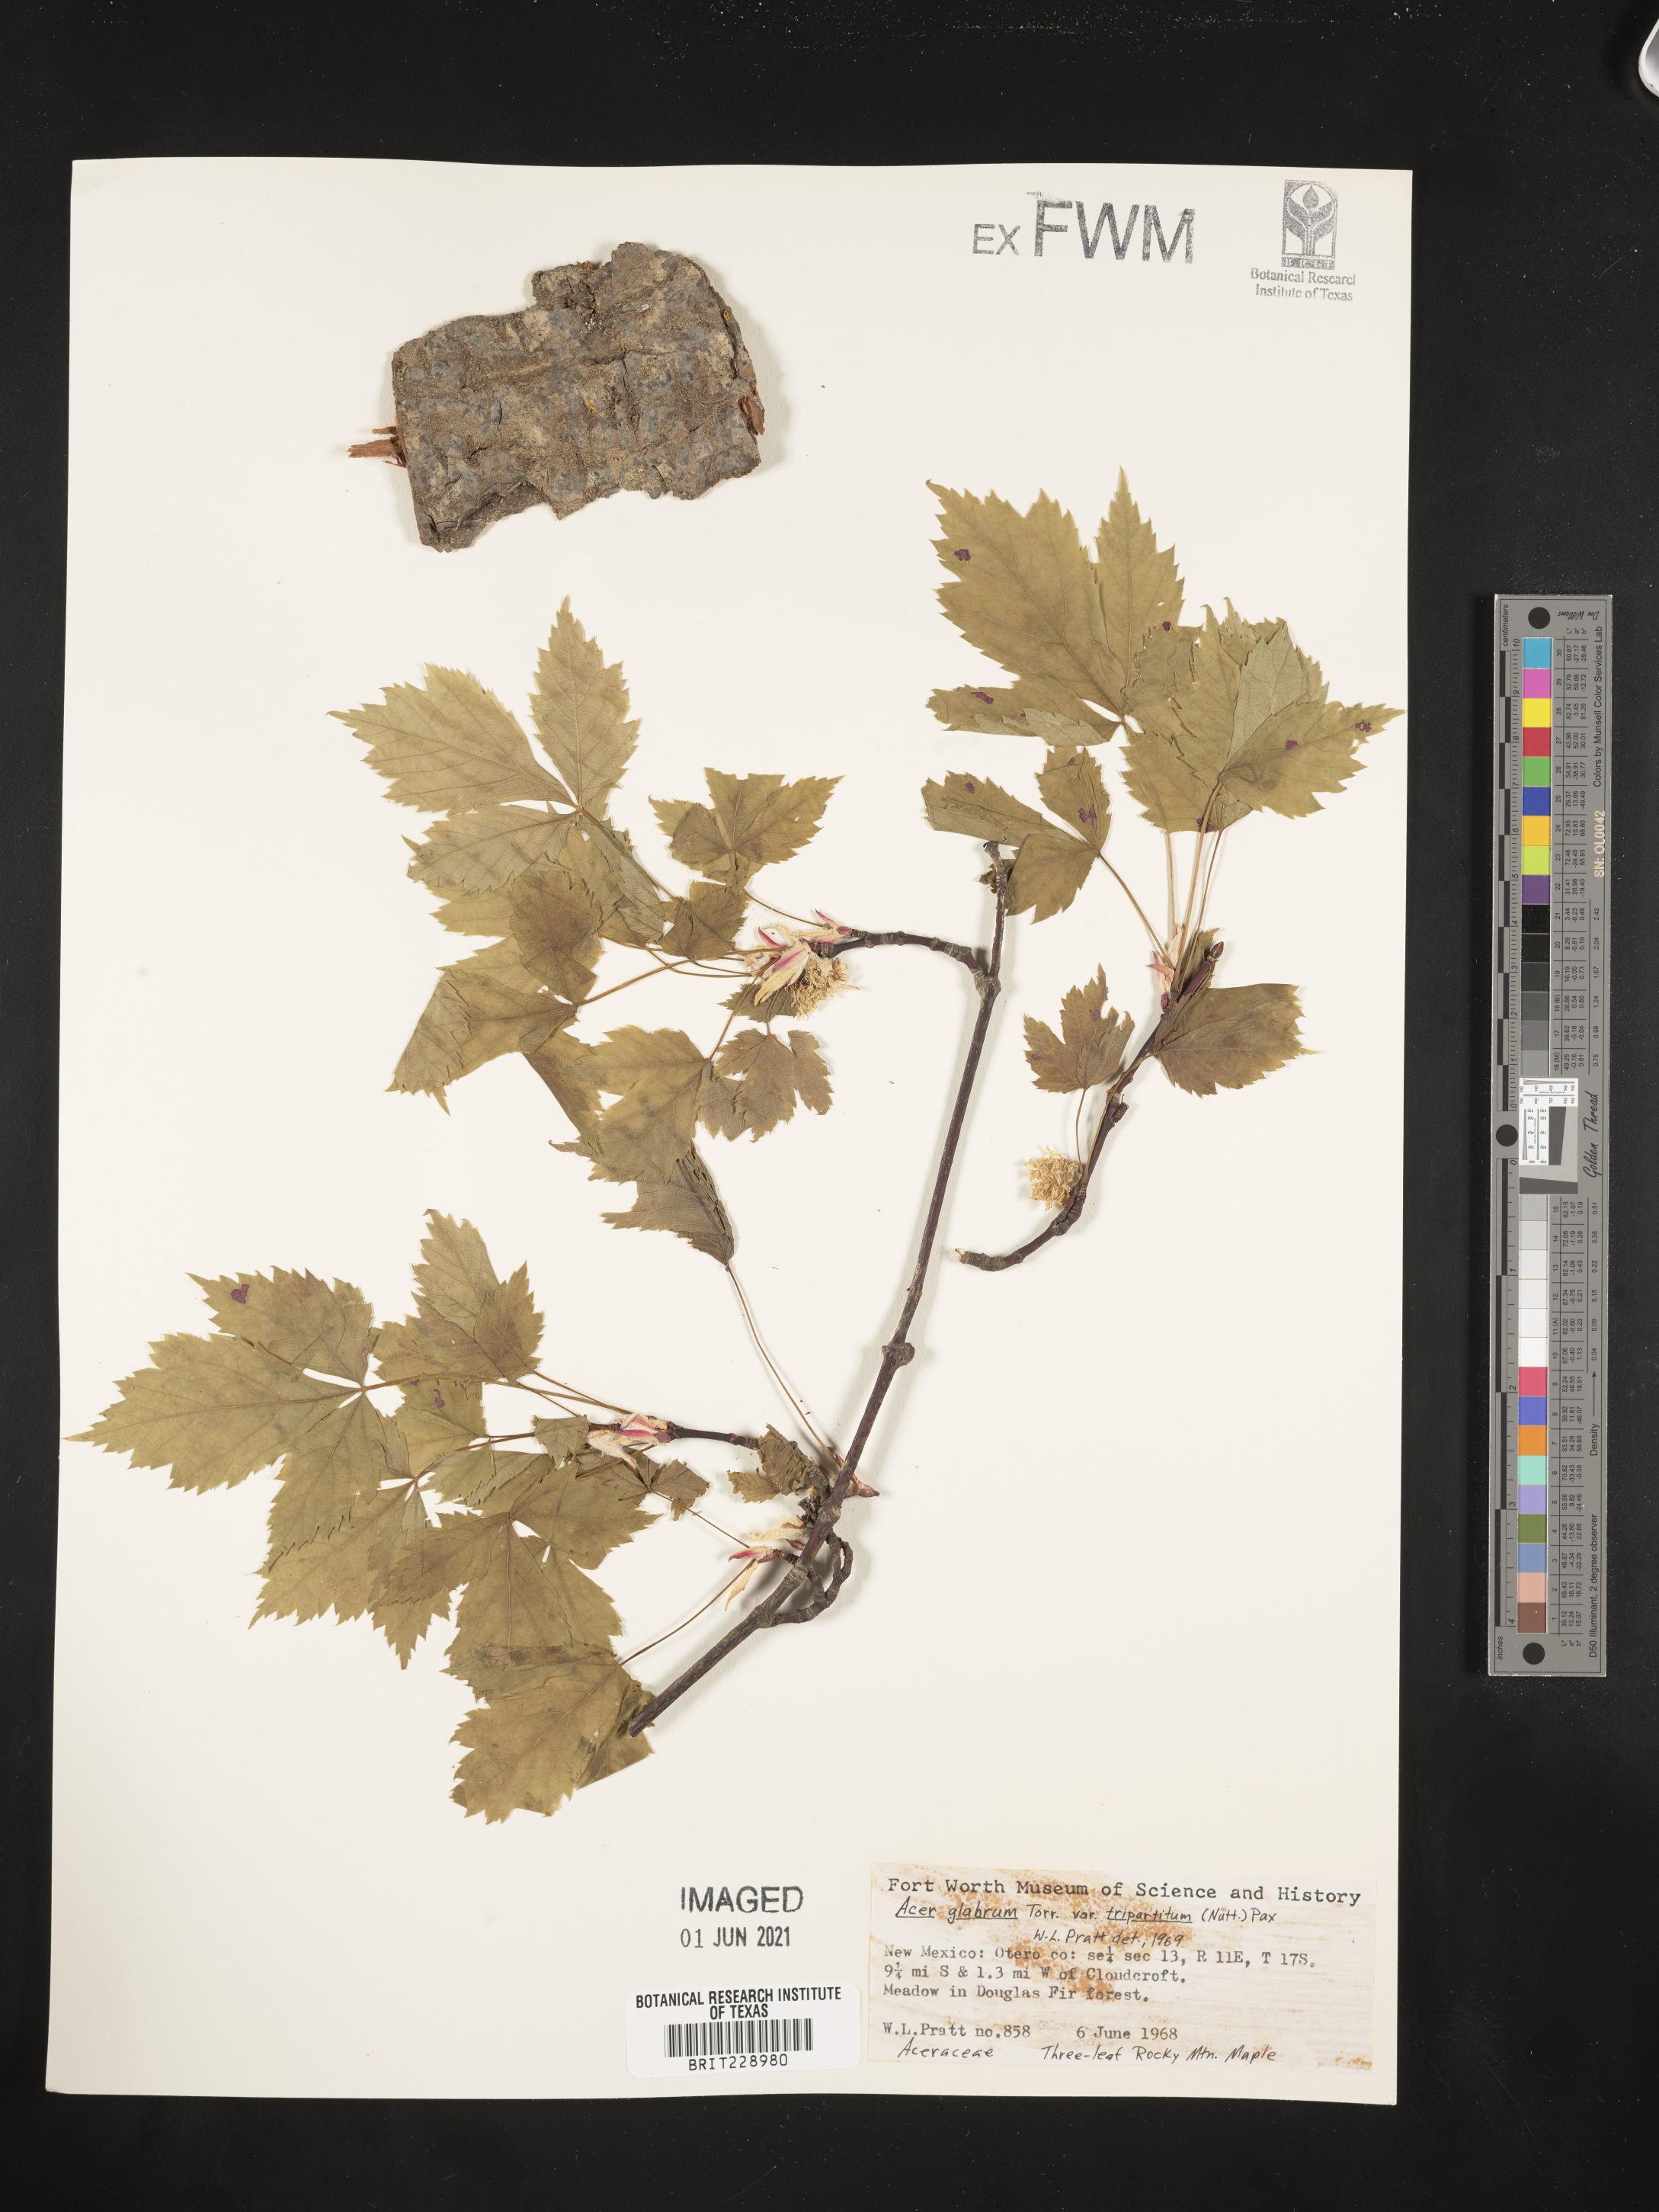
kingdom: Plantae
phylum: Tracheophyta
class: Magnoliopsida
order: Sapindales
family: Sapindaceae
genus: Acer
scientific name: Acer glabrum
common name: Rocky mountain maple
